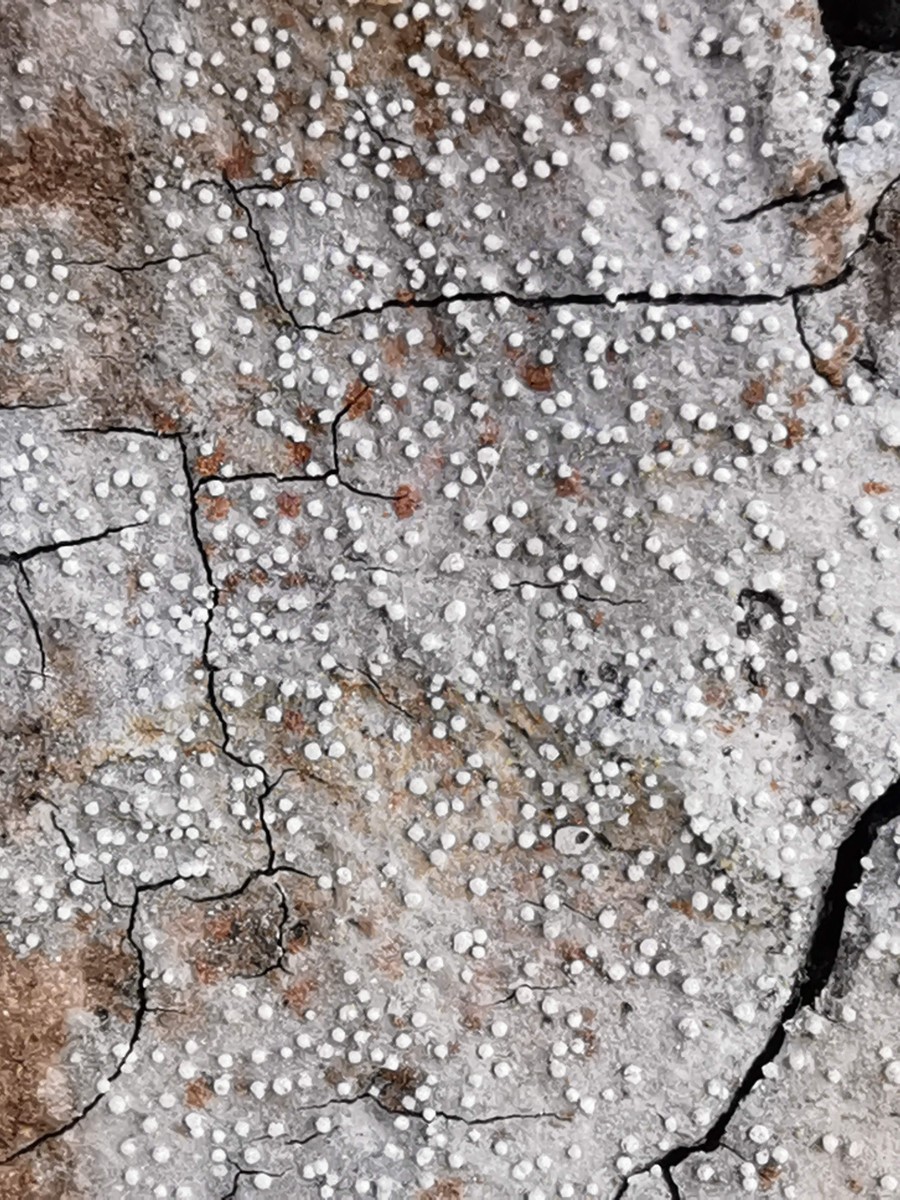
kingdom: Fungi
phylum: Ascomycota
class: Arthoniomycetes
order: Arthoniales
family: Roccellaceae
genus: Lecanactis
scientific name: Lecanactis abietina
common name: grå dugskivelav
